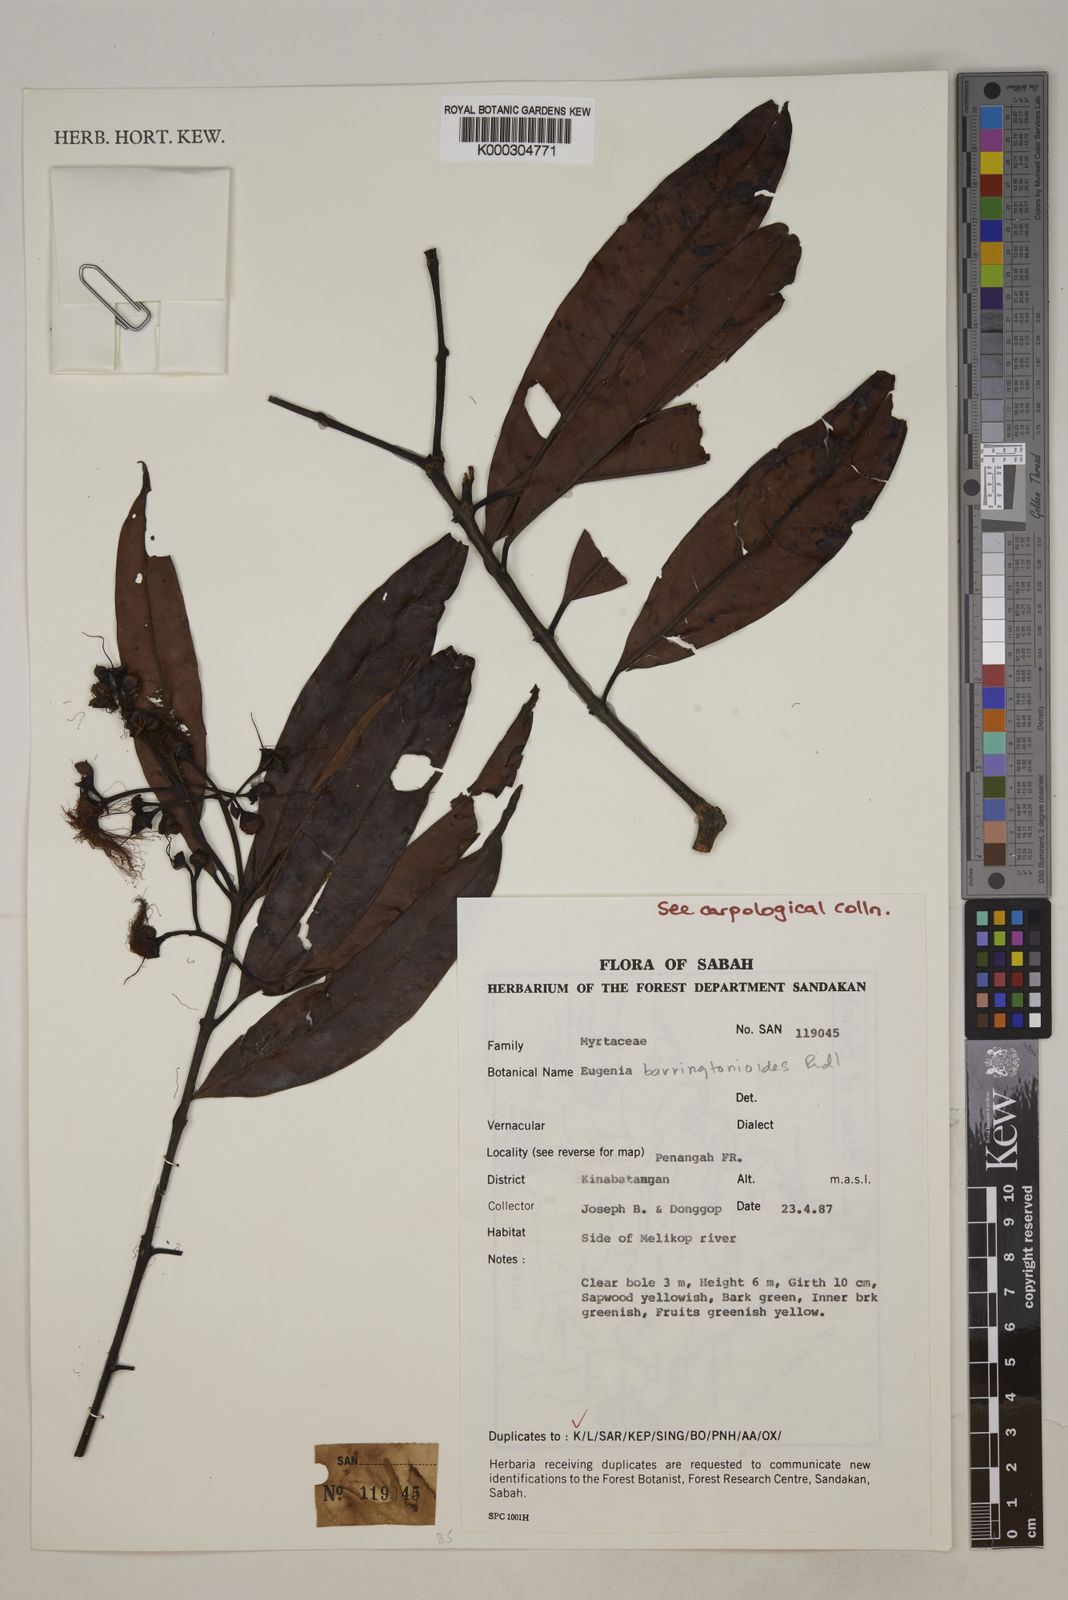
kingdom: Plantae
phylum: Tracheophyta
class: Magnoliopsida
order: Myrtales
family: Myrtaceae
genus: Syzygium
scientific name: Syzygium barringtonioides
